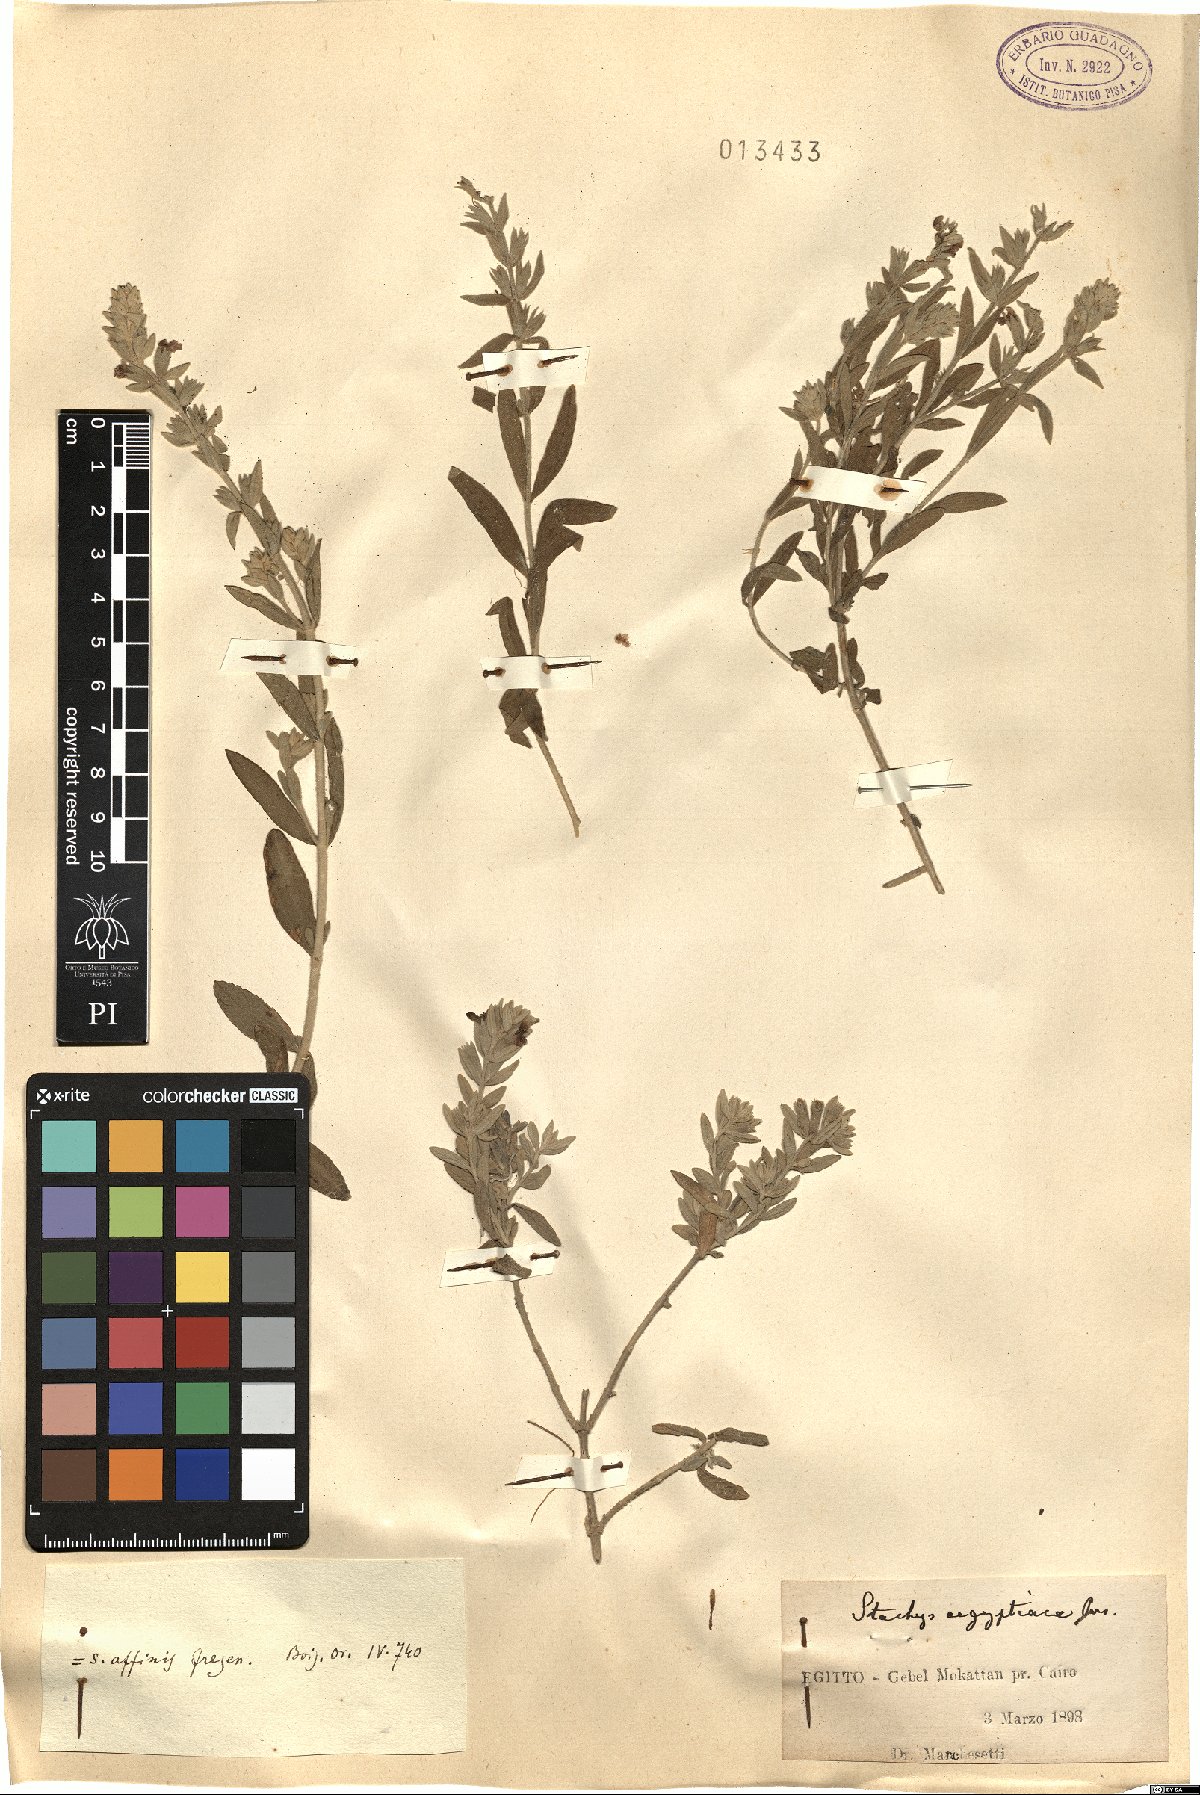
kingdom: Plantae
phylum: Tracheophyta
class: Magnoliopsida
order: Lamiales
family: Lamiaceae
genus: Stachys
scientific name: Stachys aegyptiaca
